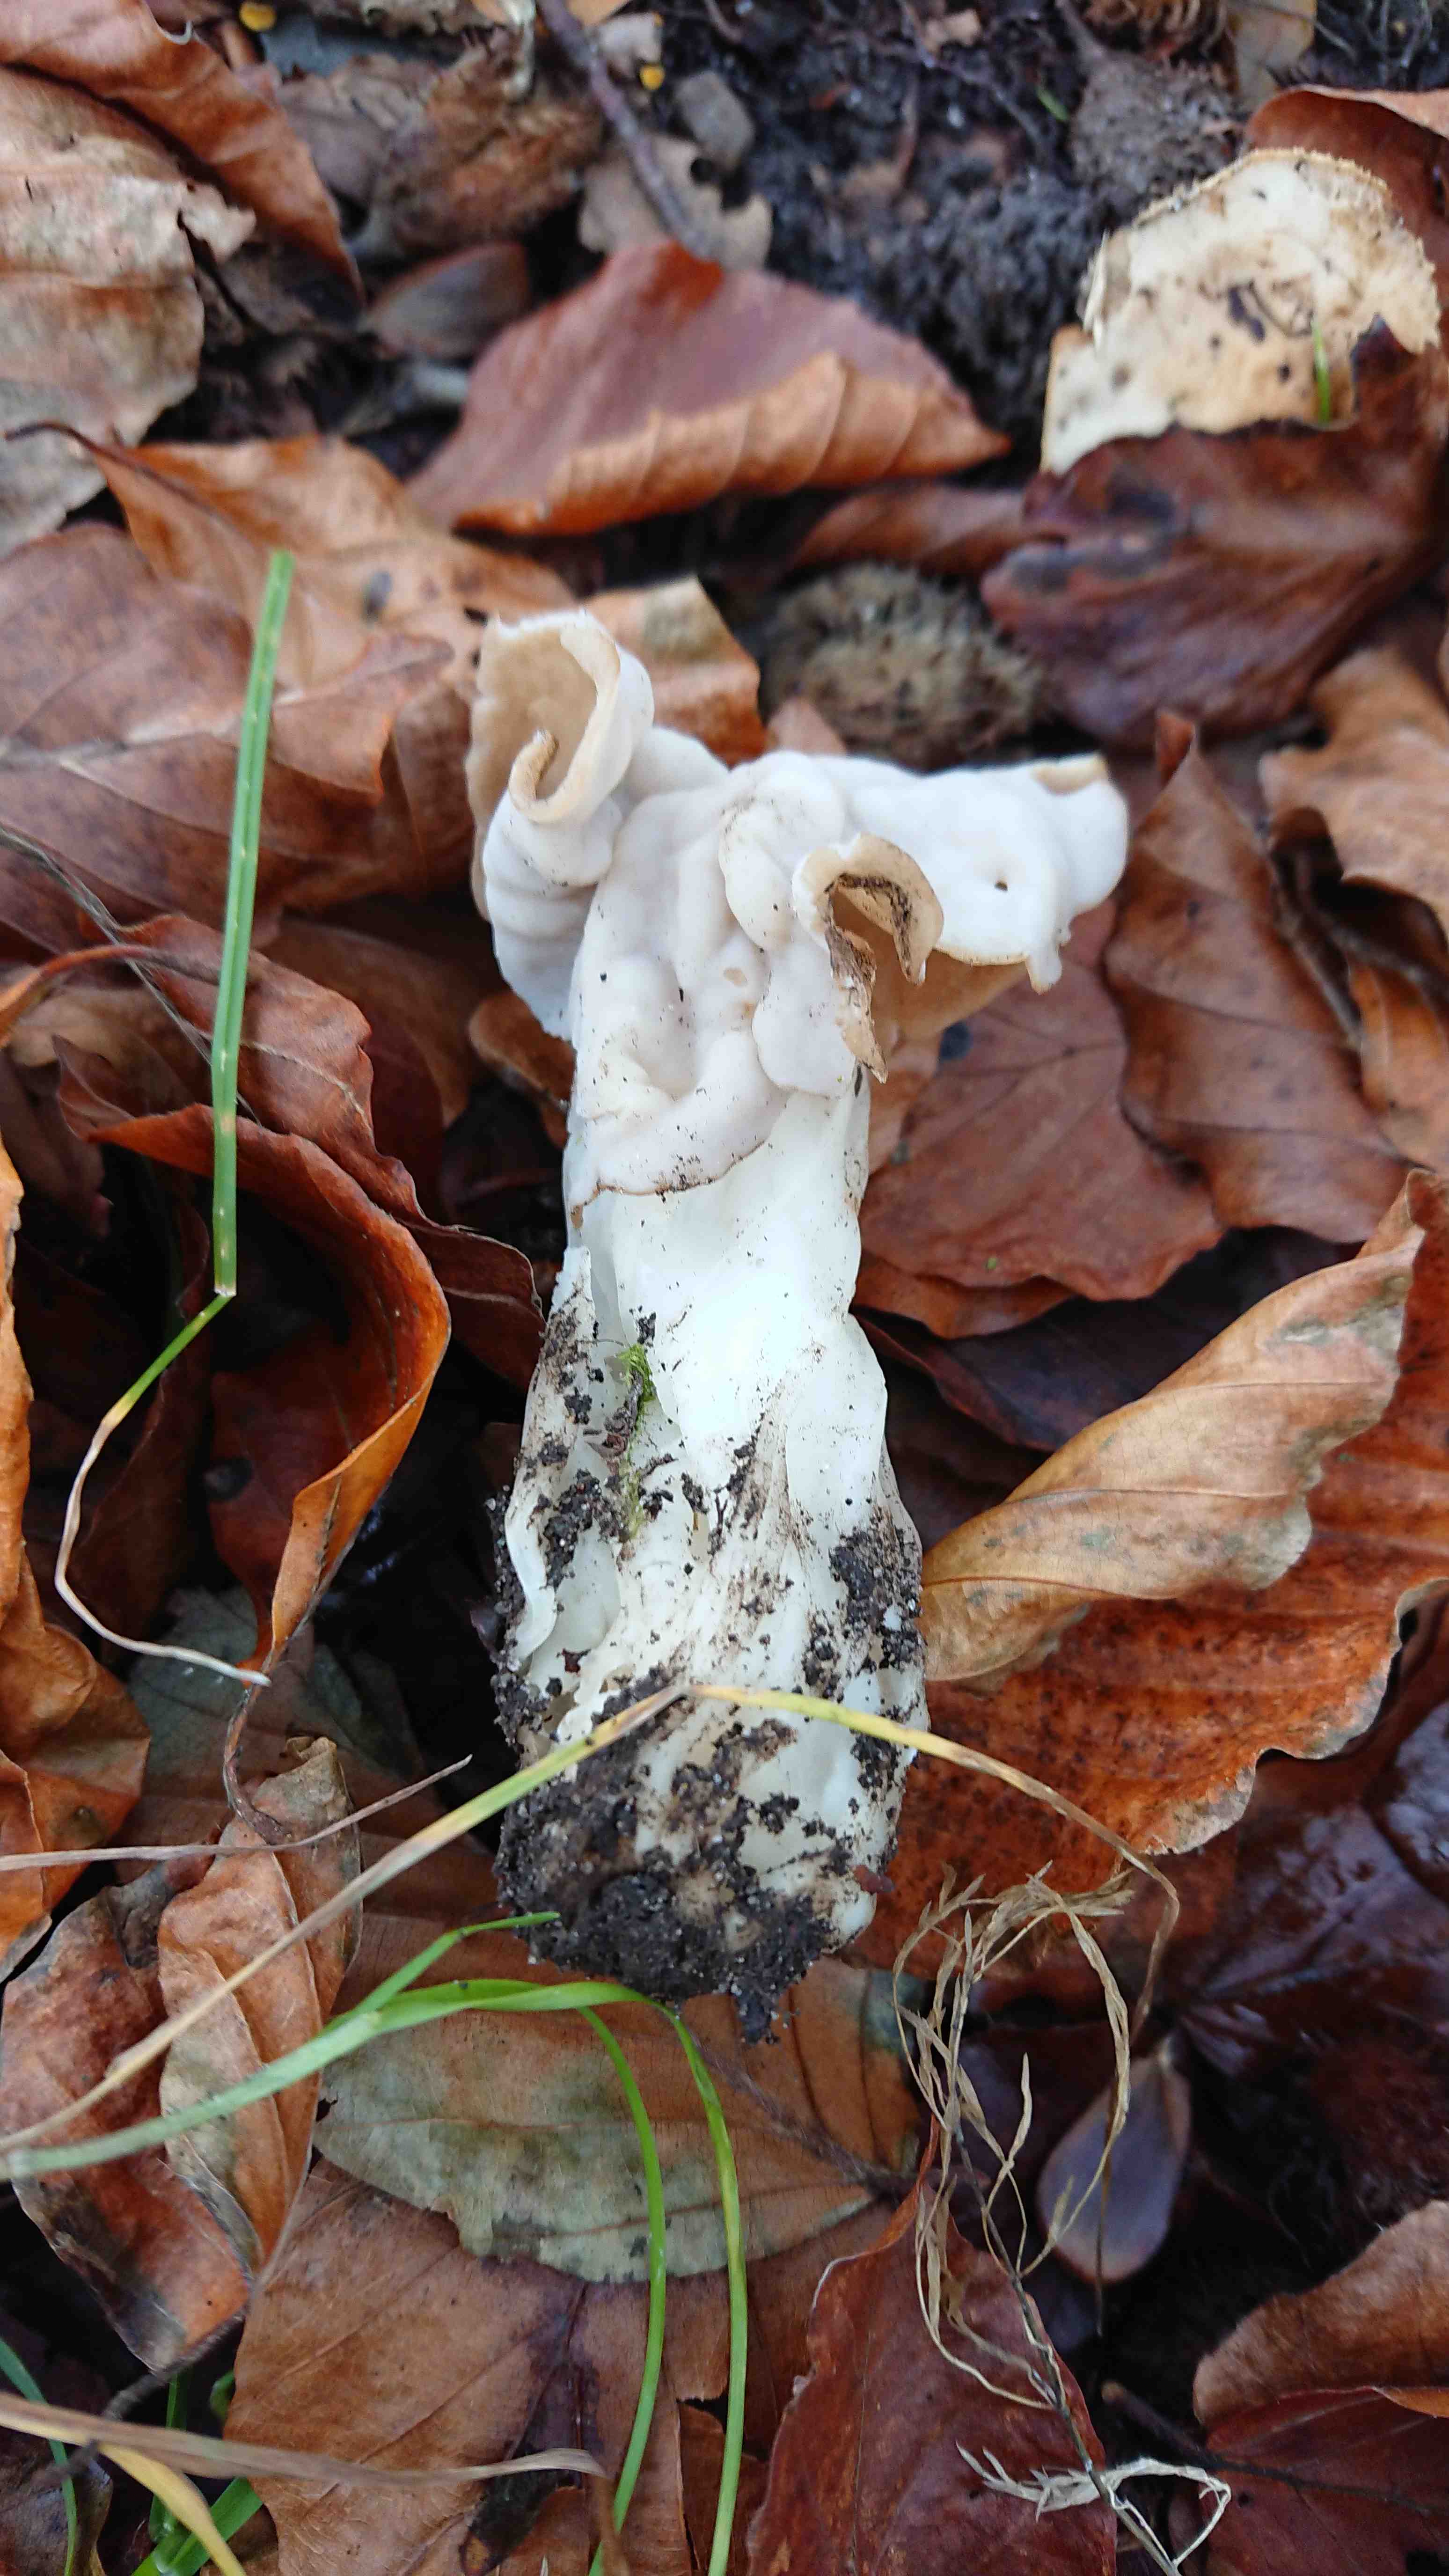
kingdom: Fungi
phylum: Ascomycota
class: Pezizomycetes
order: Pezizales
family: Helvellaceae
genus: Helvella
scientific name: Helvella crispa
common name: kruset foldhat
